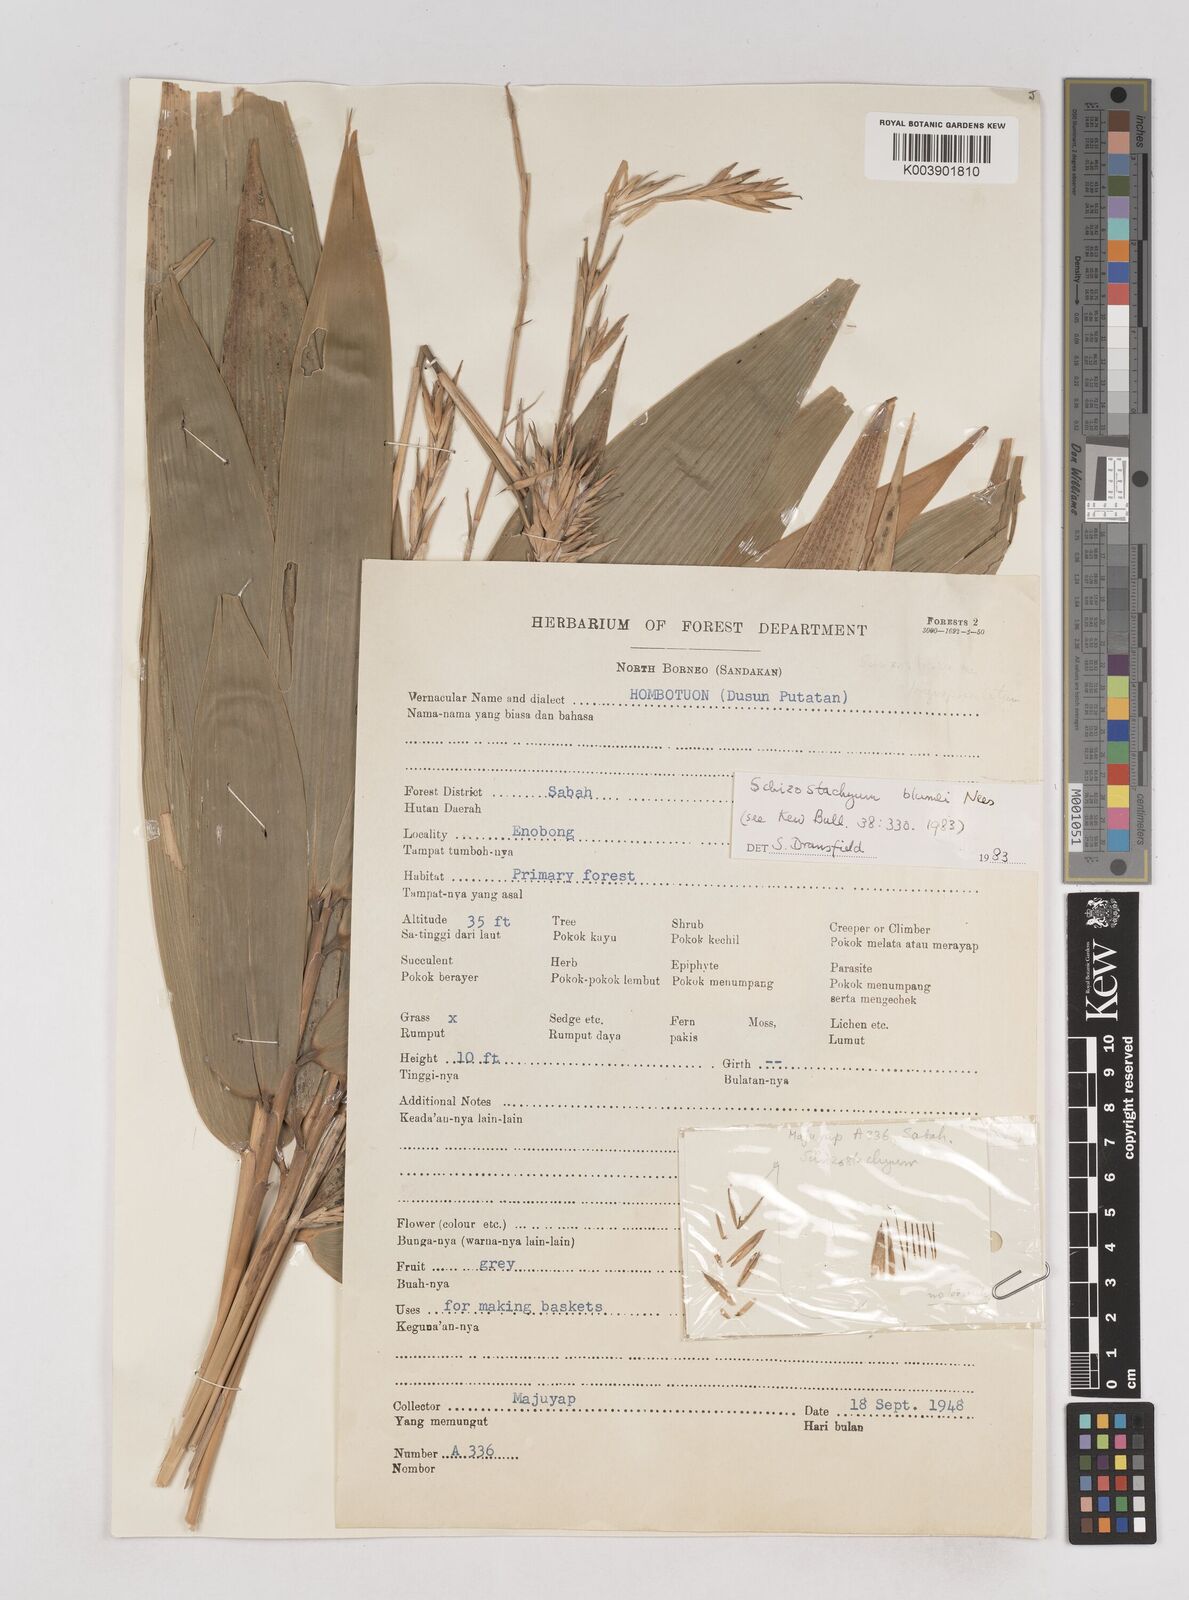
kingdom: Plantae
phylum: Tracheophyta
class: Liliopsida
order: Poales
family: Poaceae
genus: Schizostachyum
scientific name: Schizostachyum blumei
